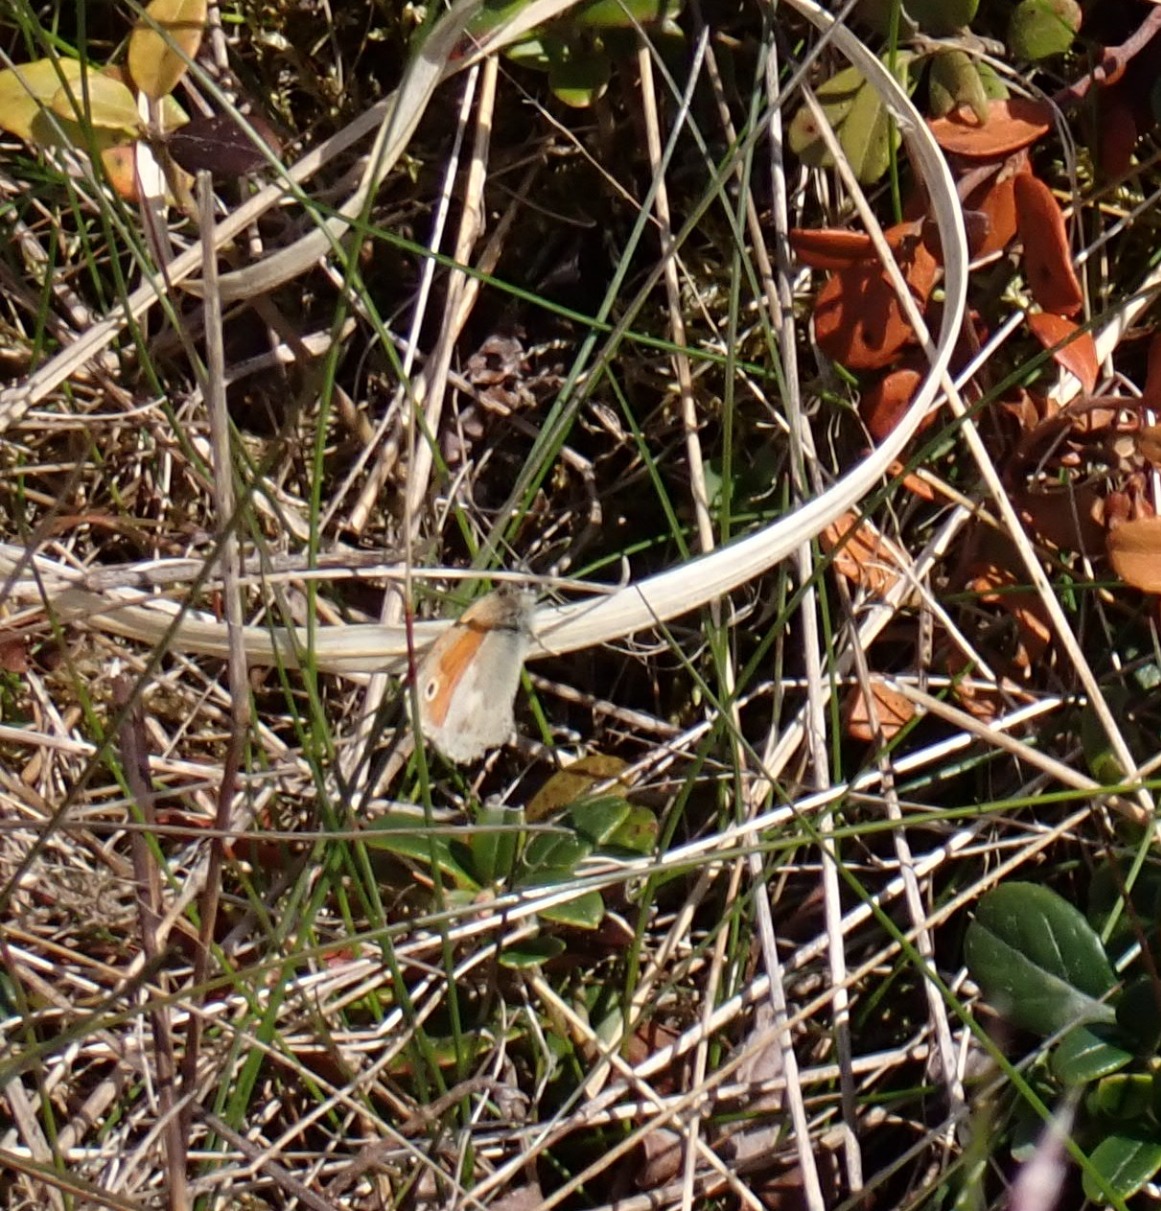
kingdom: Animalia
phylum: Arthropoda
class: Insecta
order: Lepidoptera
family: Nymphalidae
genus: Coenonympha
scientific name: Coenonympha pamphilus
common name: Okkergul randøje
